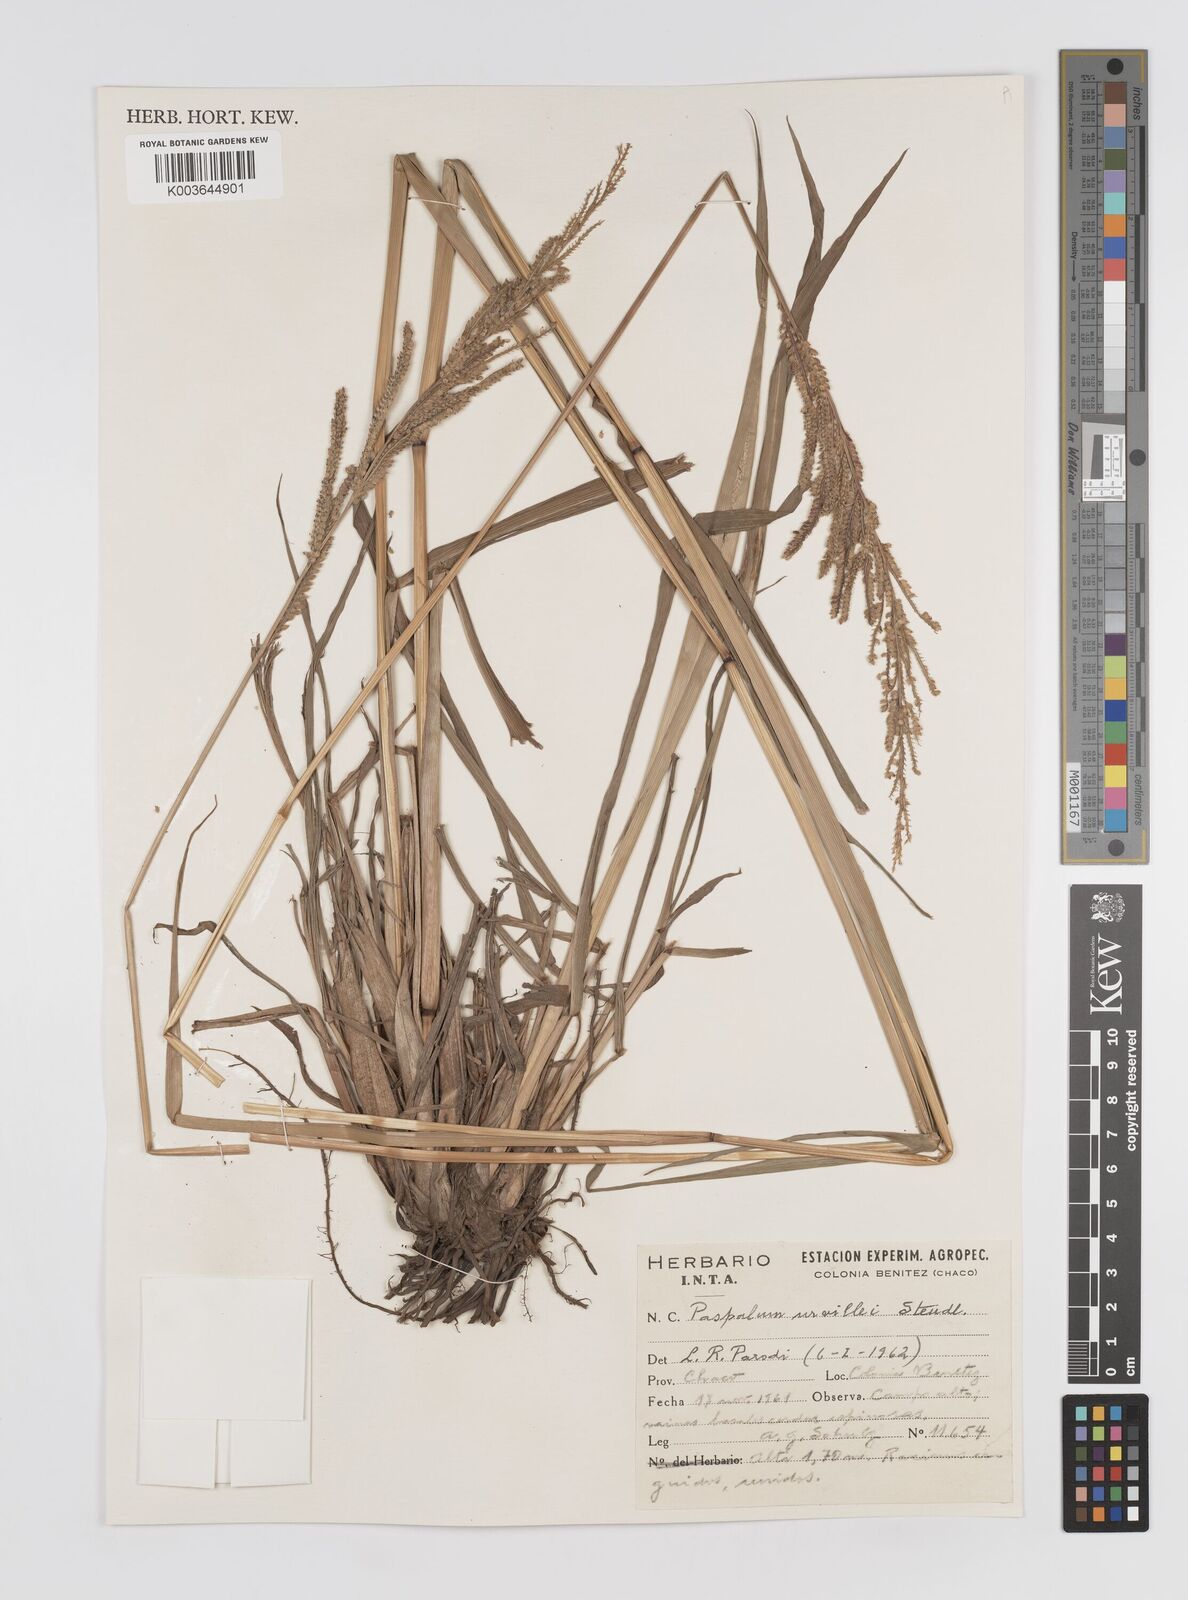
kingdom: Plantae
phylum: Tracheophyta
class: Liliopsida
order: Poales
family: Poaceae
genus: Paspalum
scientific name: Paspalum urvillei
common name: Vasey's grass
